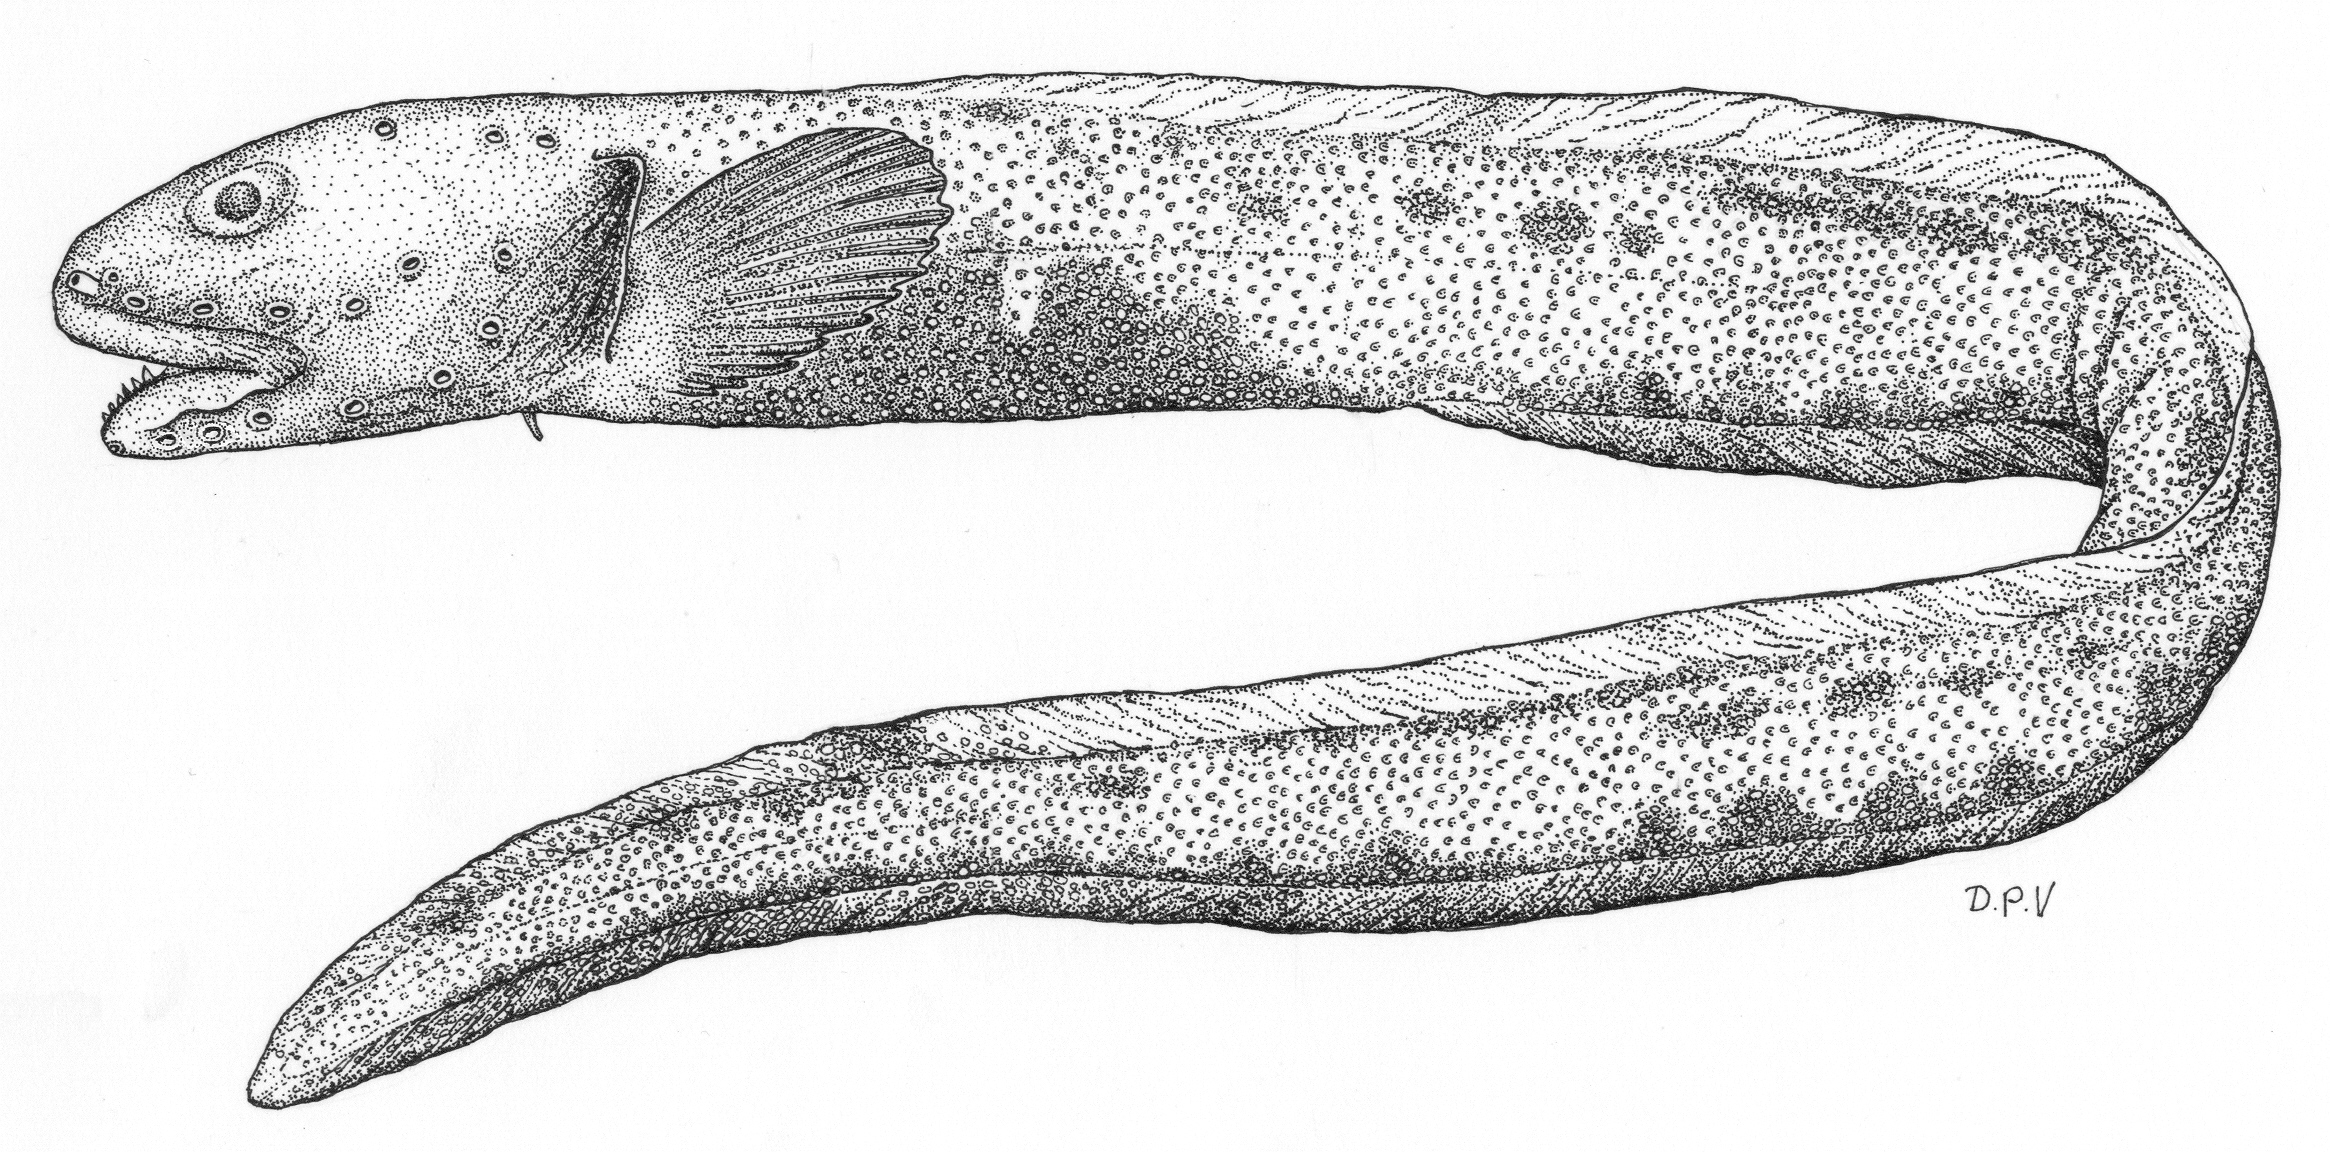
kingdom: Animalia
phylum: Chordata
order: Perciformes
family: Zoarcidae
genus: Lycenchelys
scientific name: Lycenchelys
